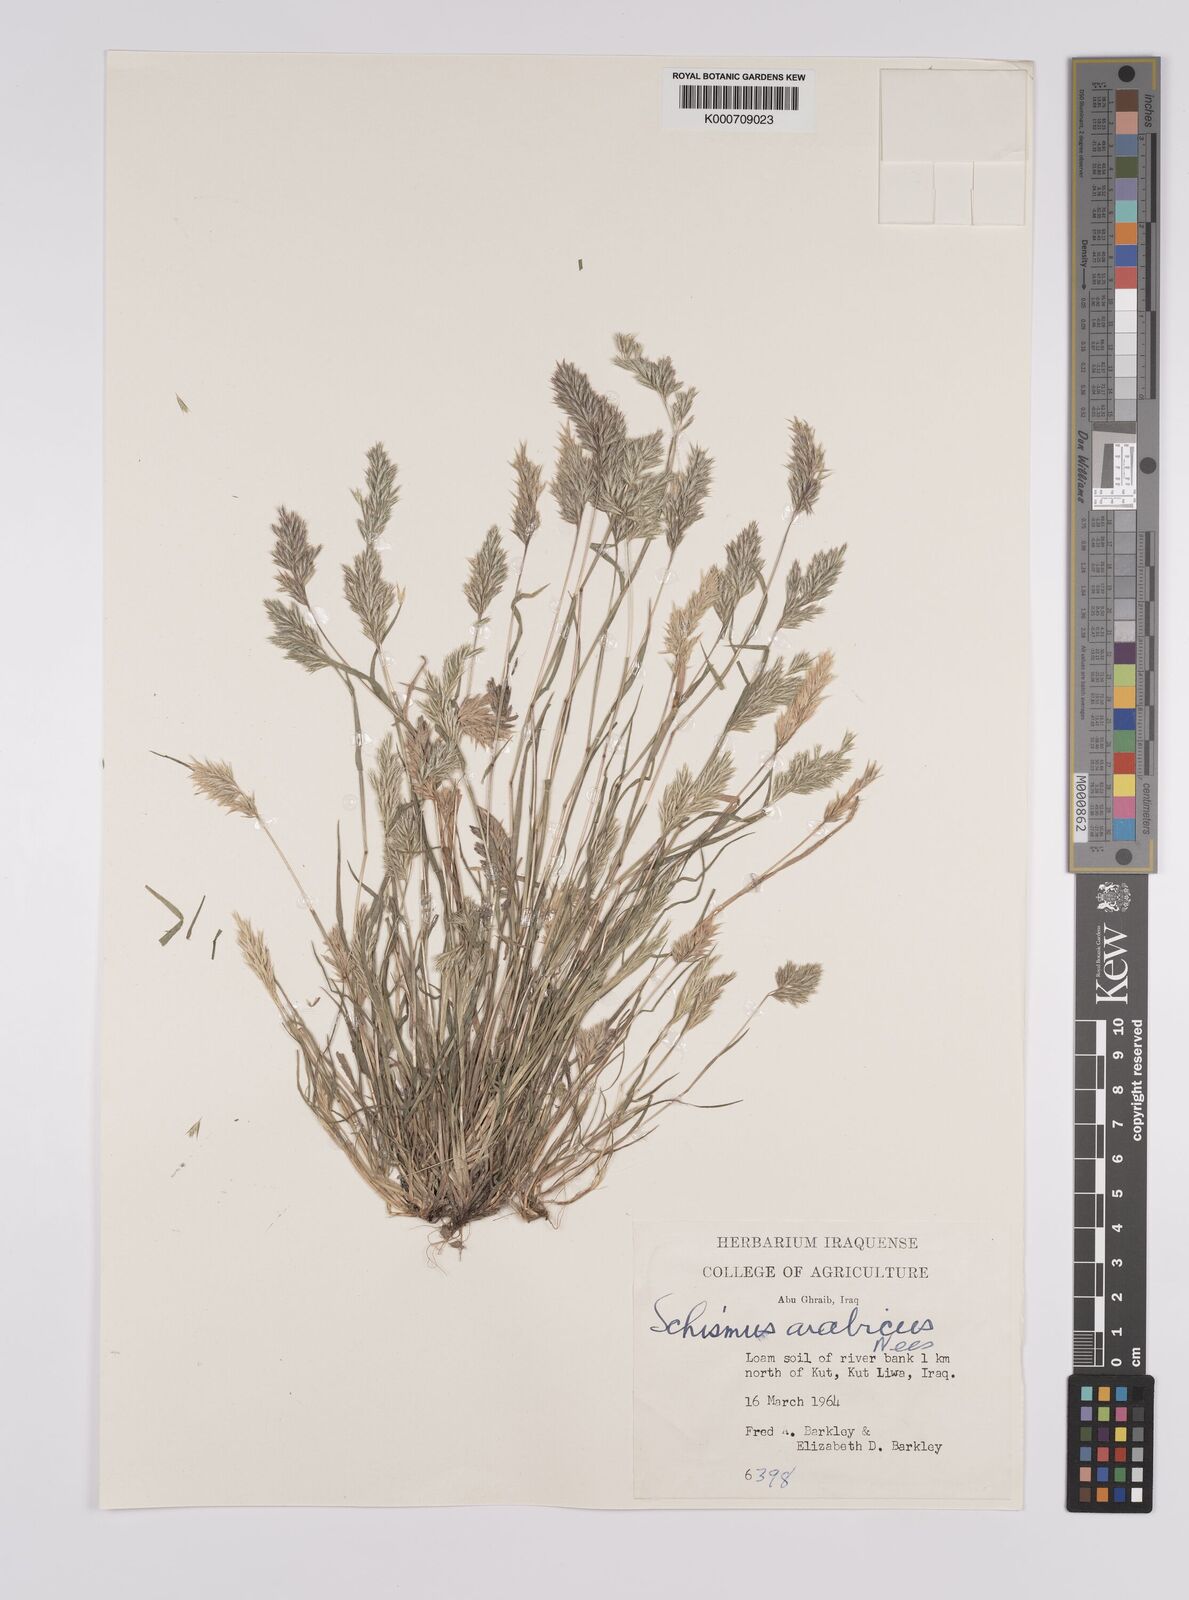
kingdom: Plantae
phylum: Tracheophyta
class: Liliopsida
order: Poales
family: Poaceae
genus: Schismus
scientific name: Schismus arabicus
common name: Arabian schismus
